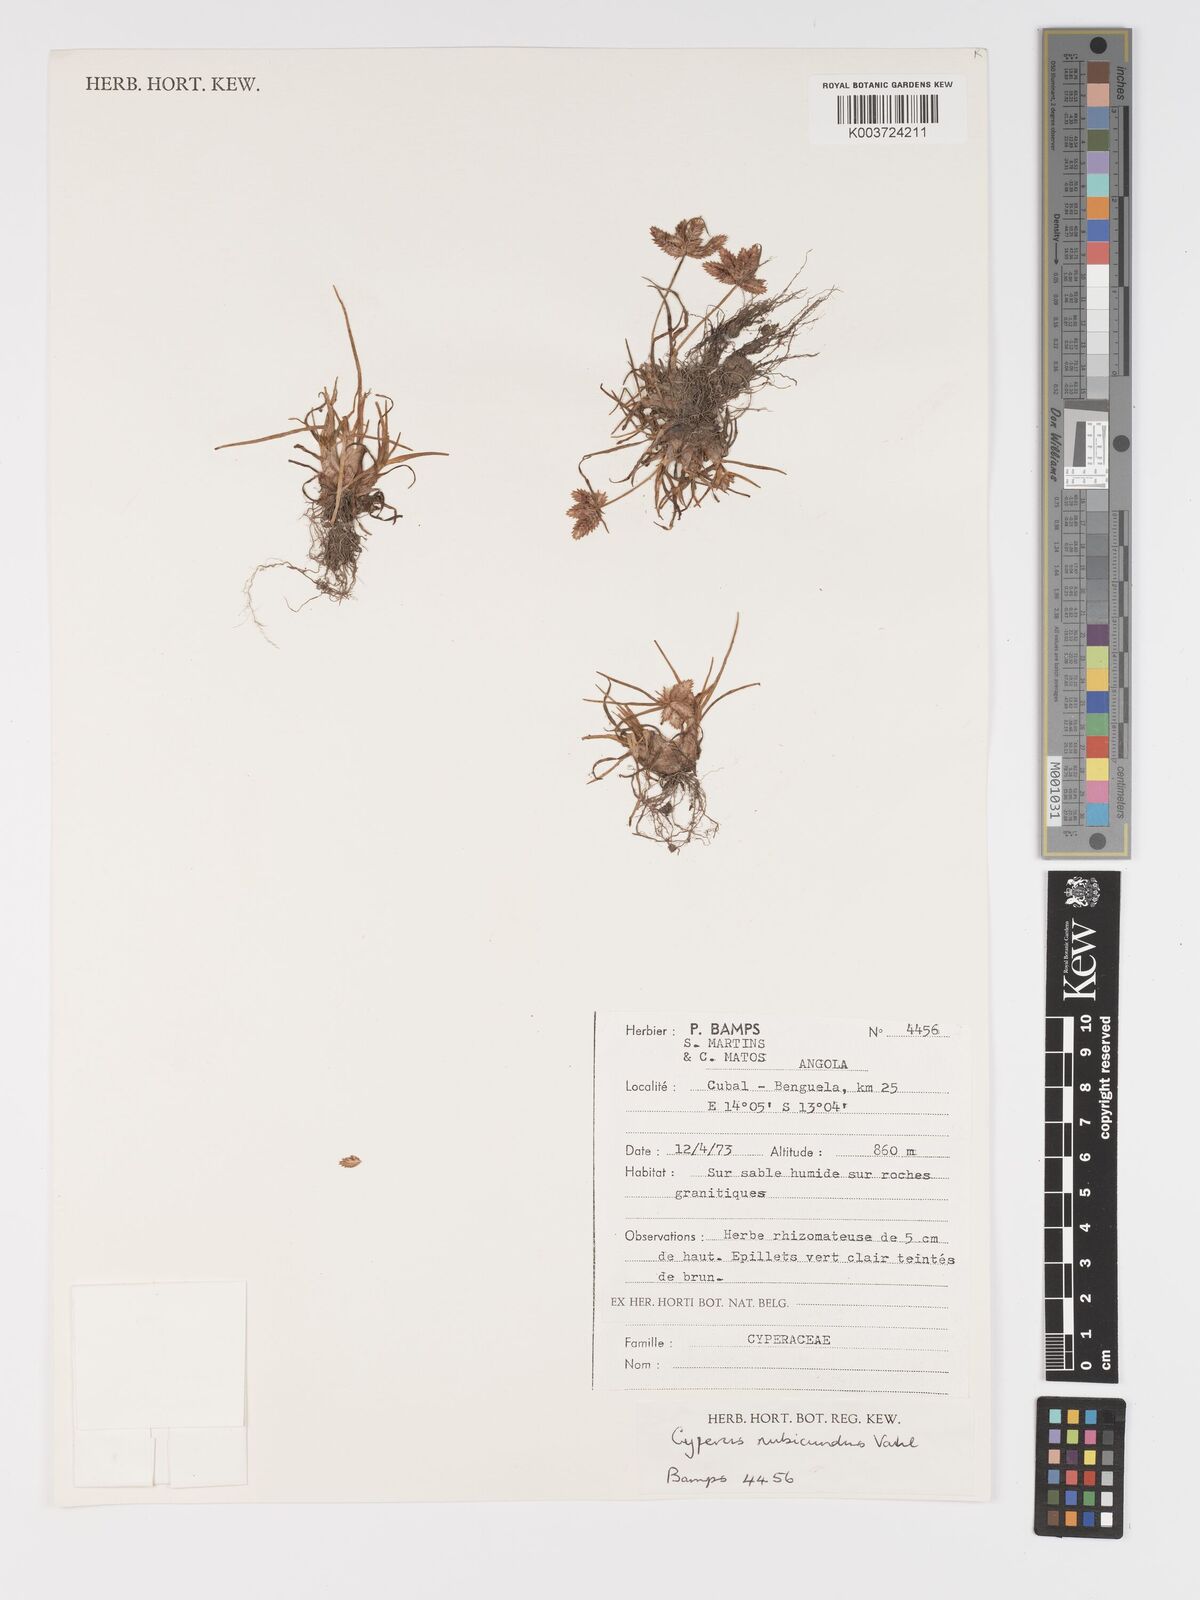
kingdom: Plantae
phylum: Tracheophyta
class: Liliopsida
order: Poales
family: Cyperaceae
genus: Cyperus
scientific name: Cyperus rubicundus
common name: Coco-grass
